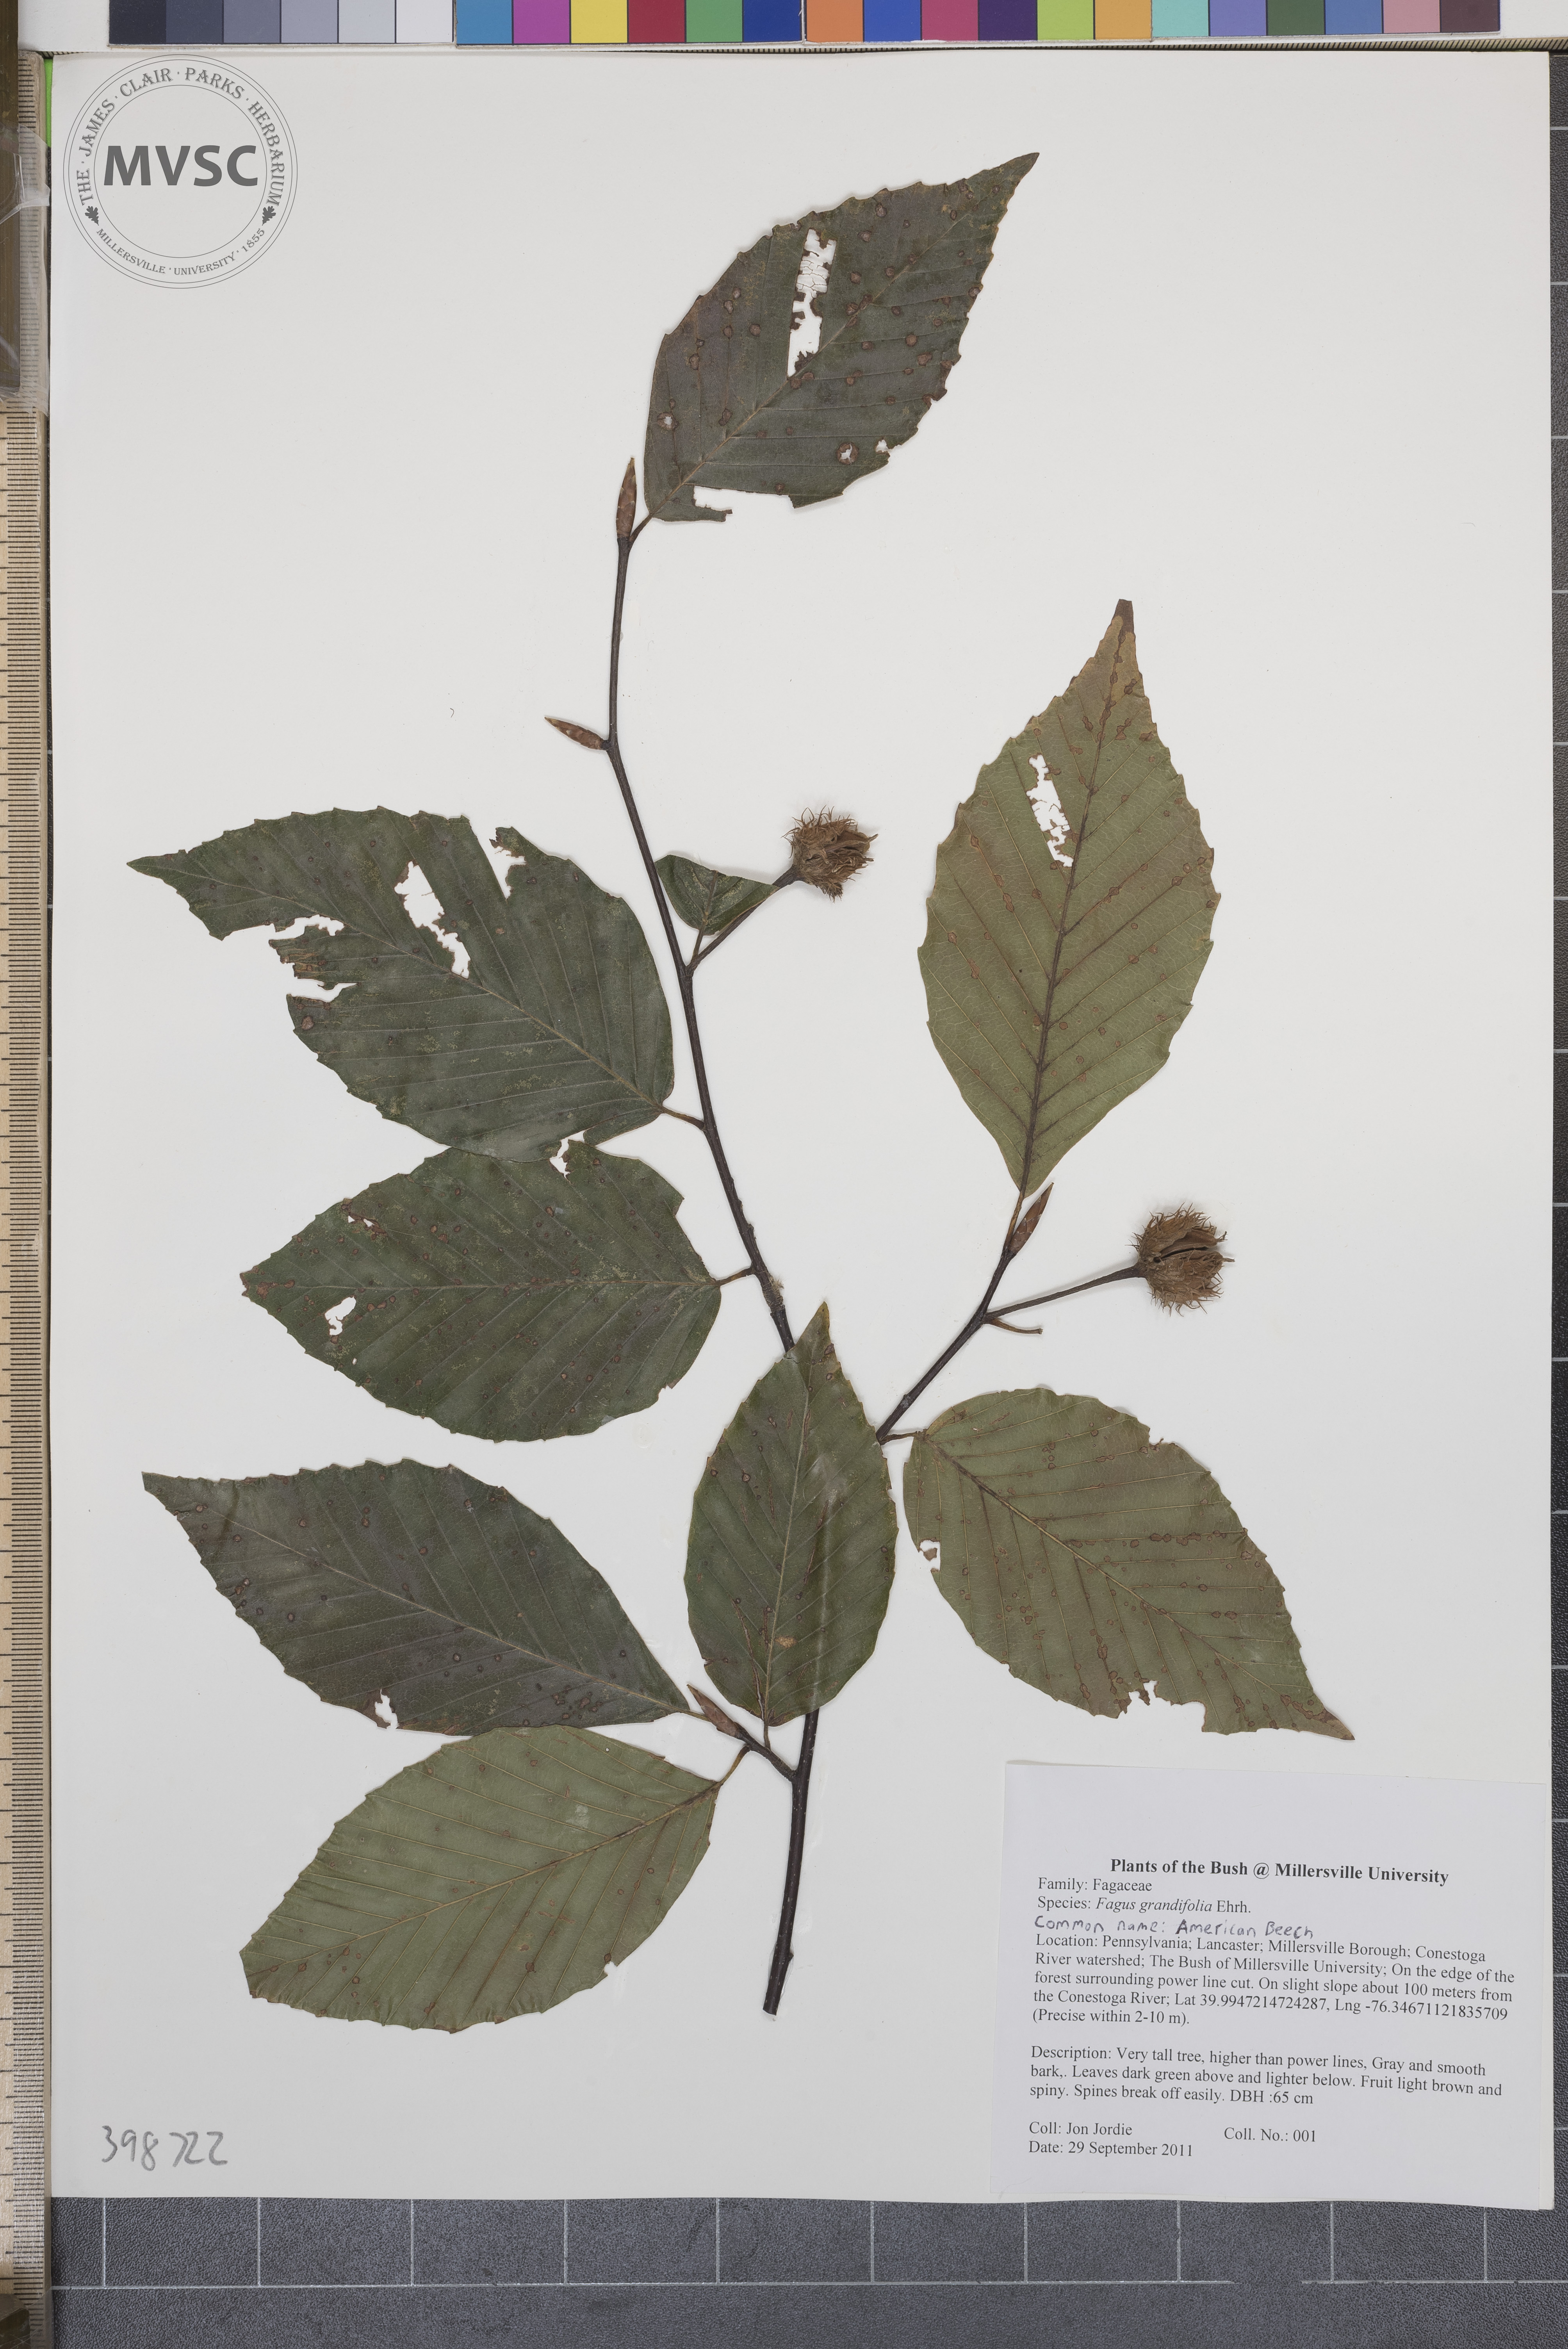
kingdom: Plantae
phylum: Tracheophyta
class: Magnoliopsida
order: Fagales
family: Fagaceae
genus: Fagus
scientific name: Fagus grandifolia
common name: American beech
